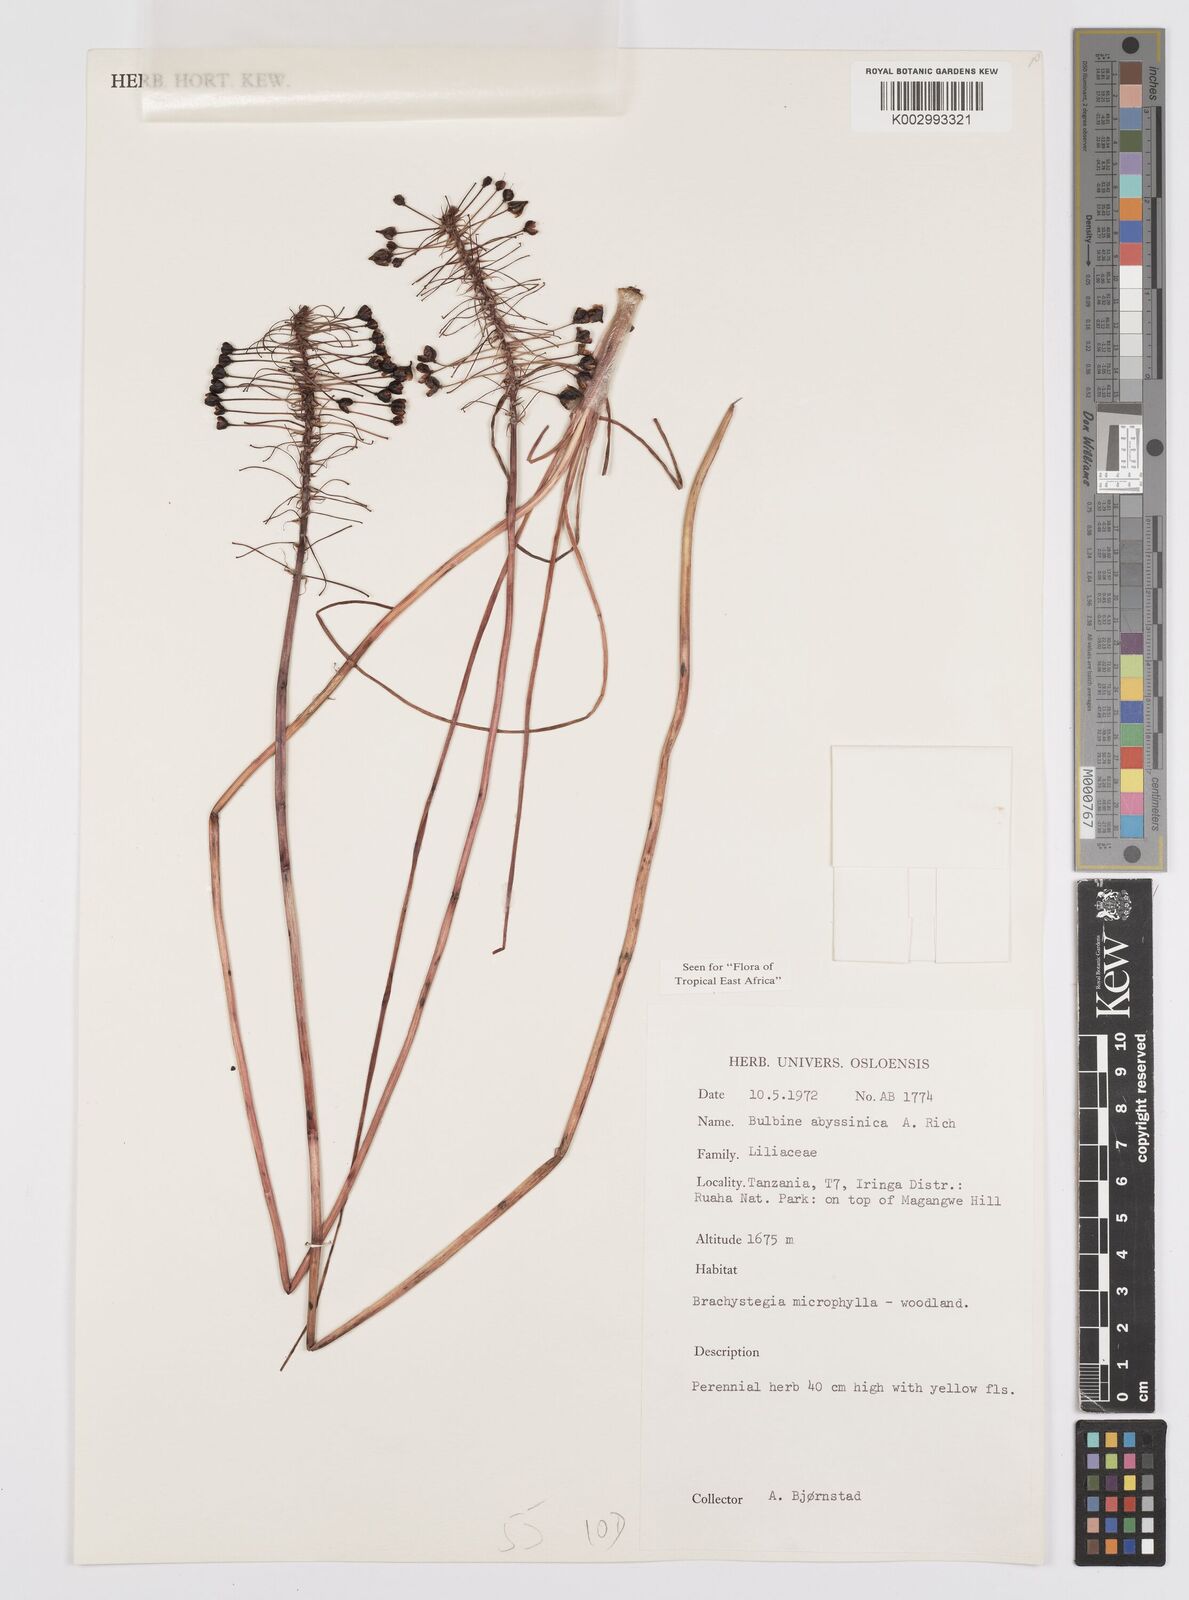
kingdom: Plantae
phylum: Tracheophyta
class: Liliopsida
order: Asparagales
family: Asphodelaceae
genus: Bulbine
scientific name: Bulbine abyssinica
